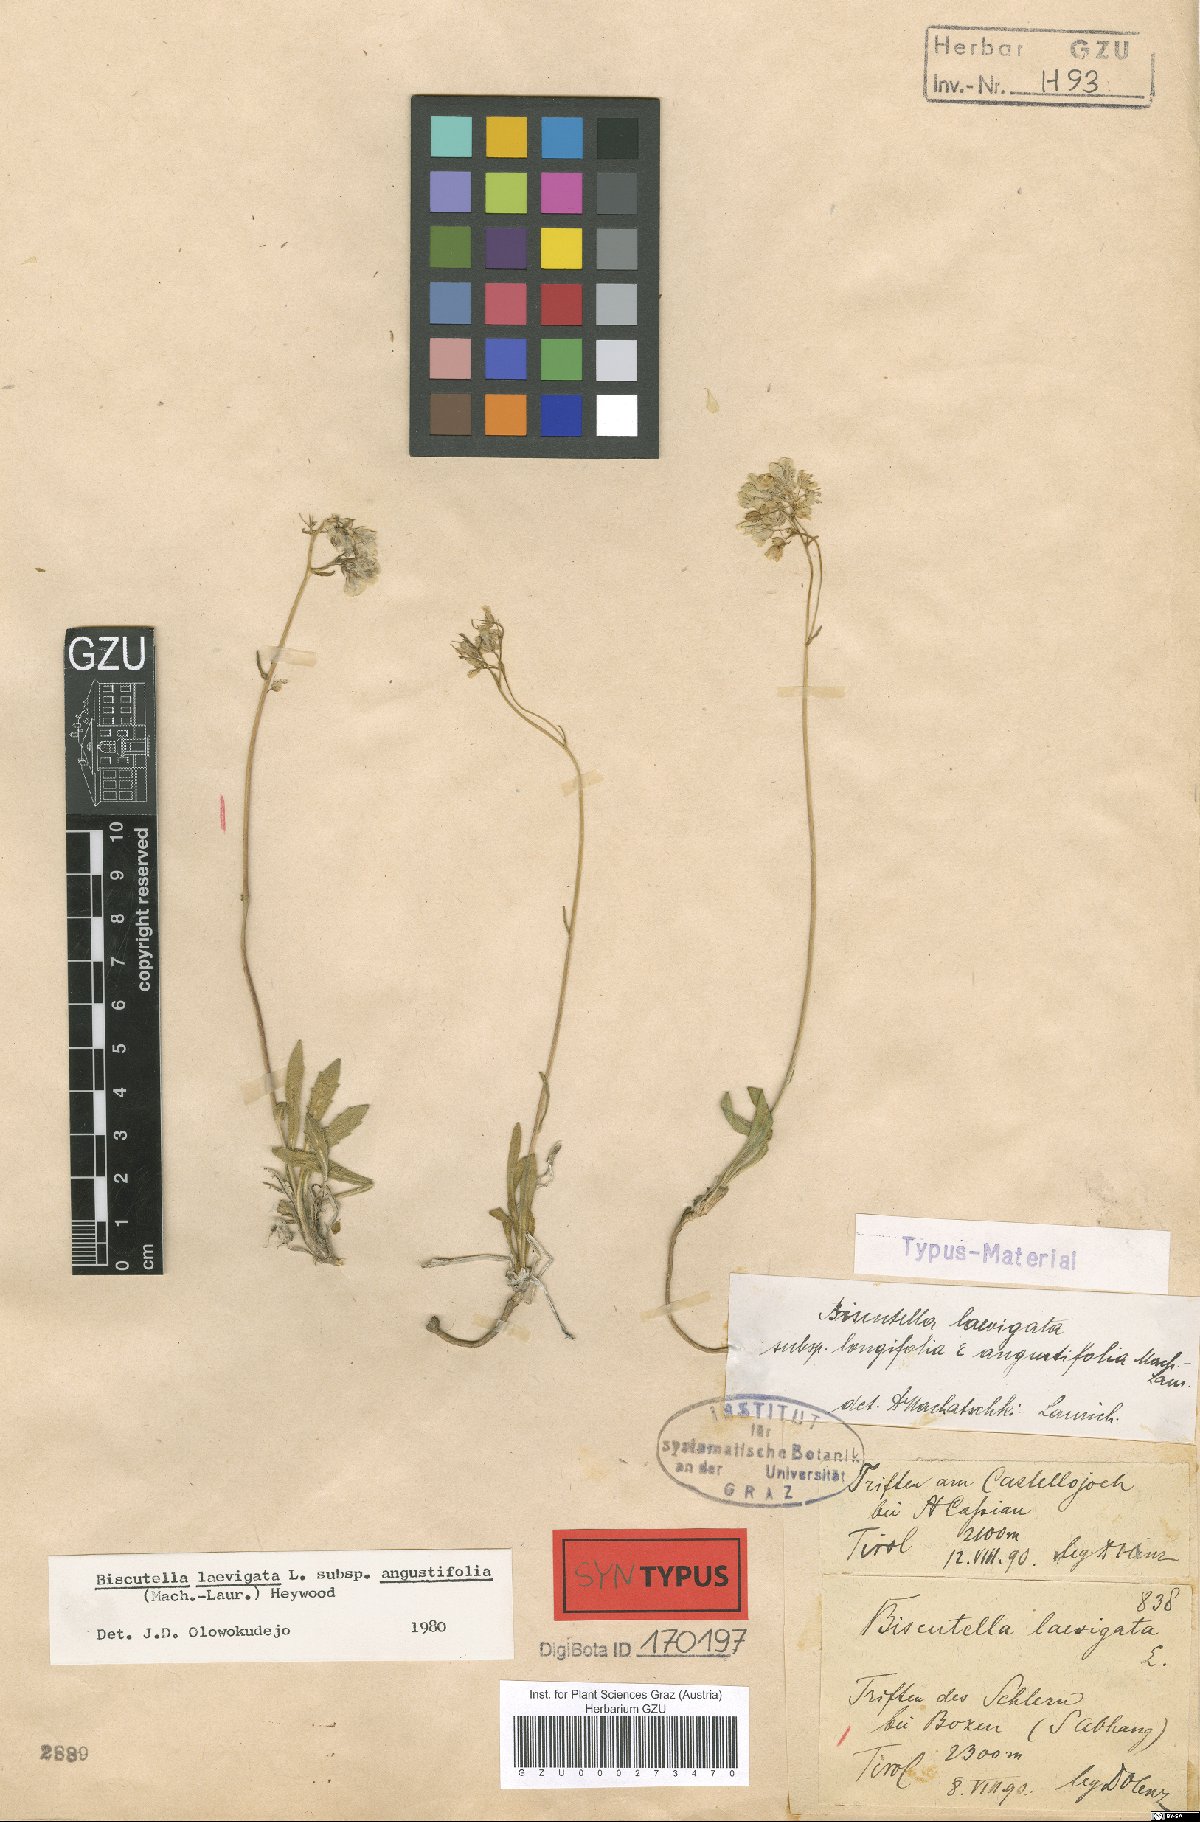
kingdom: Plantae
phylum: Tracheophyta
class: Magnoliopsida
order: Brassicales
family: Brassicaceae
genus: Biscutella
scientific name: Biscutella laevigata
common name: Buckler mustard
